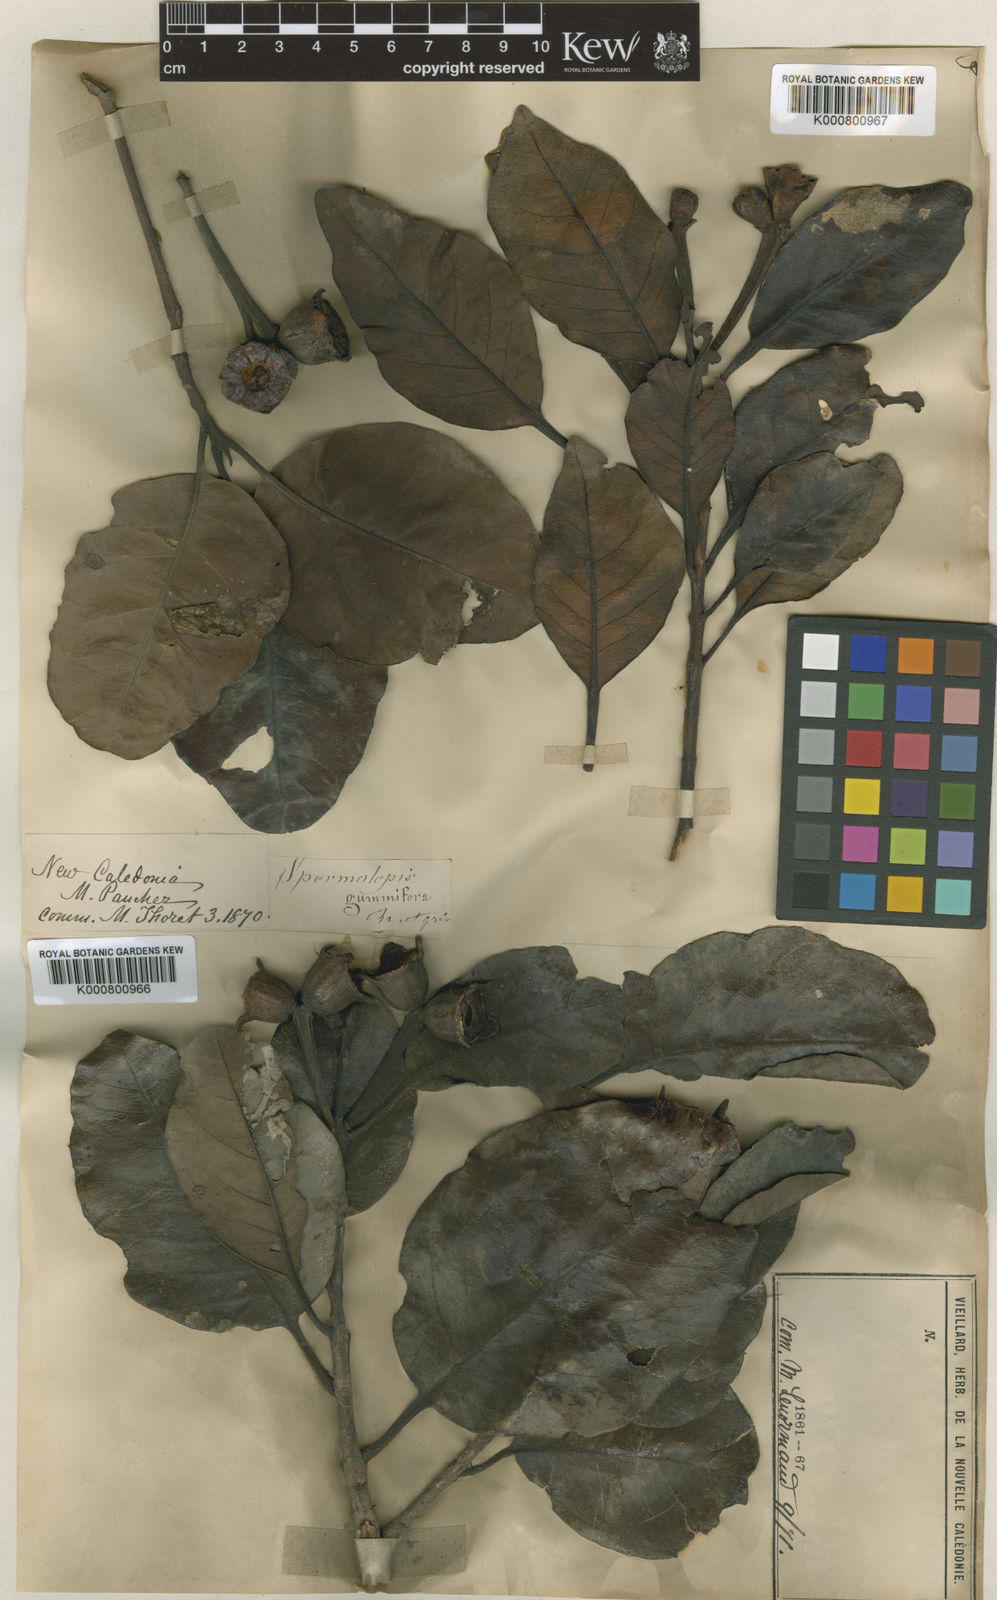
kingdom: Plantae
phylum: Tracheophyta
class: Magnoliopsida
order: Myrtales
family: Myrtaceae
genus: Arillastrum
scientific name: Arillastrum gummiferum
